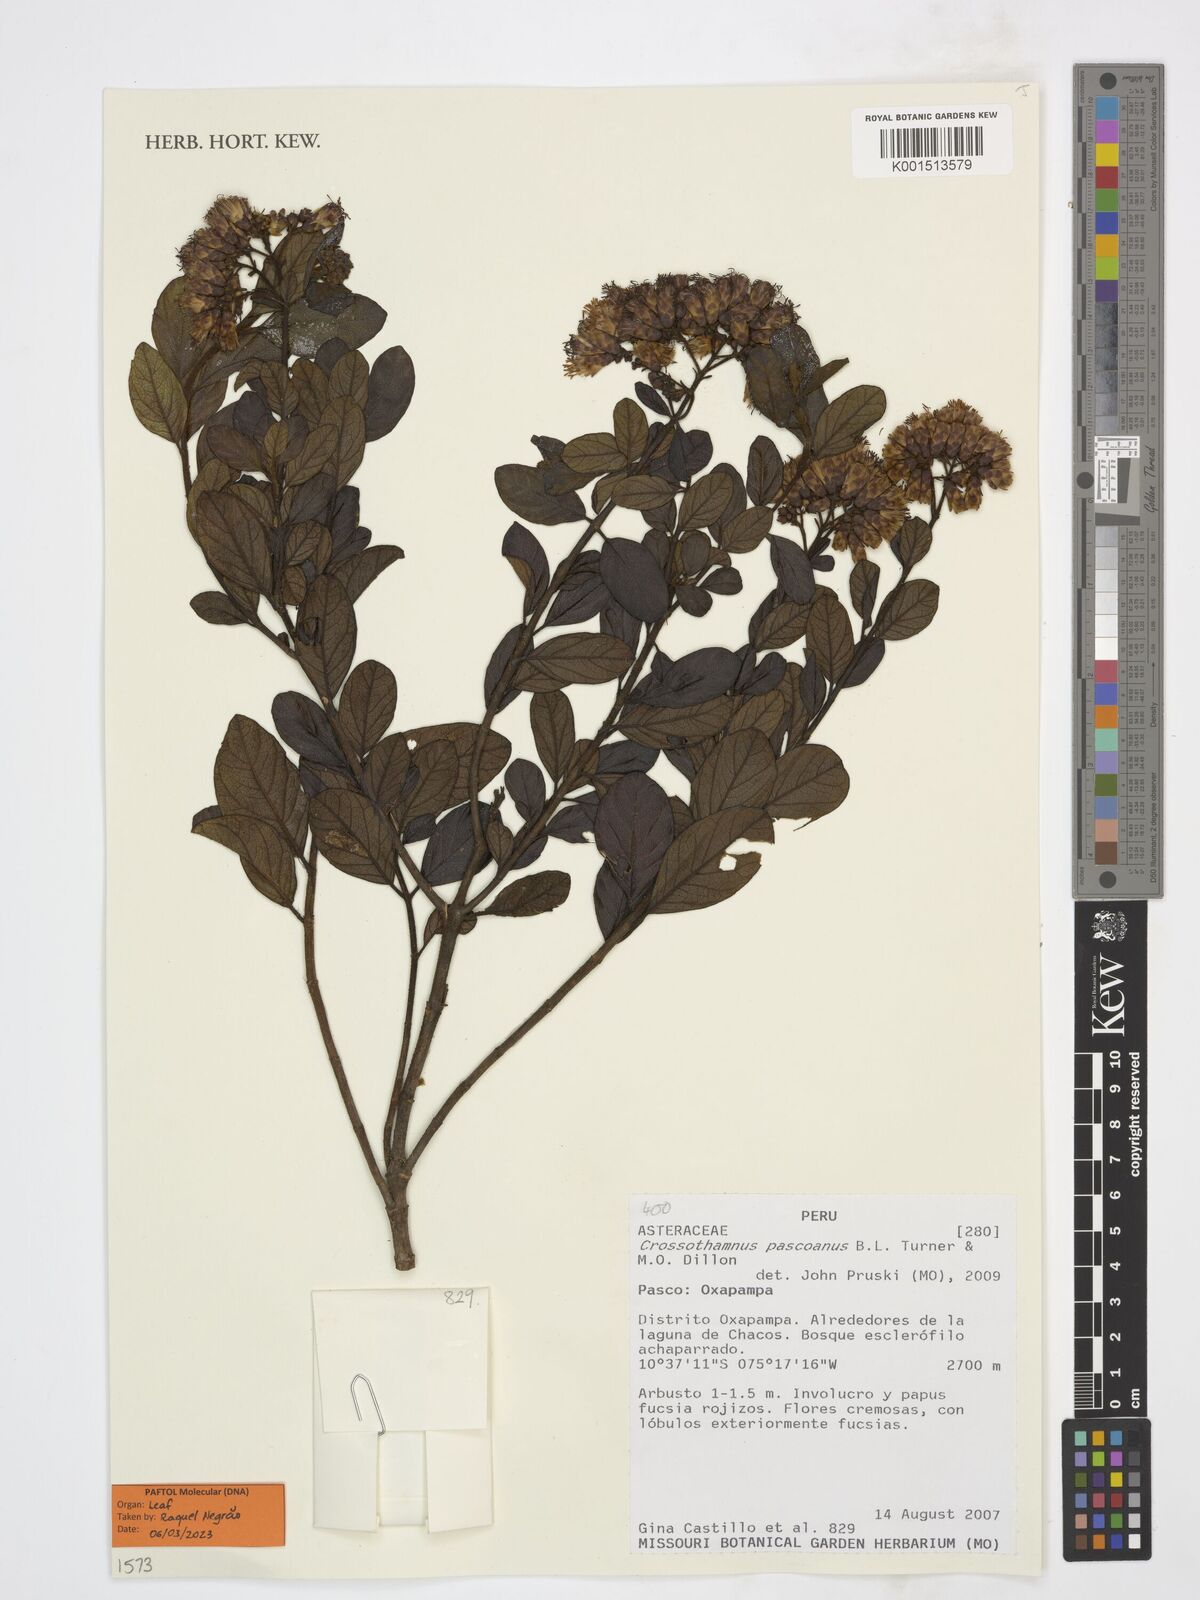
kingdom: Plantae
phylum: Tracheophyta
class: Magnoliopsida
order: Asterales
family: Asteraceae
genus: Crossothamnus
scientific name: Crossothamnus pascoanus
